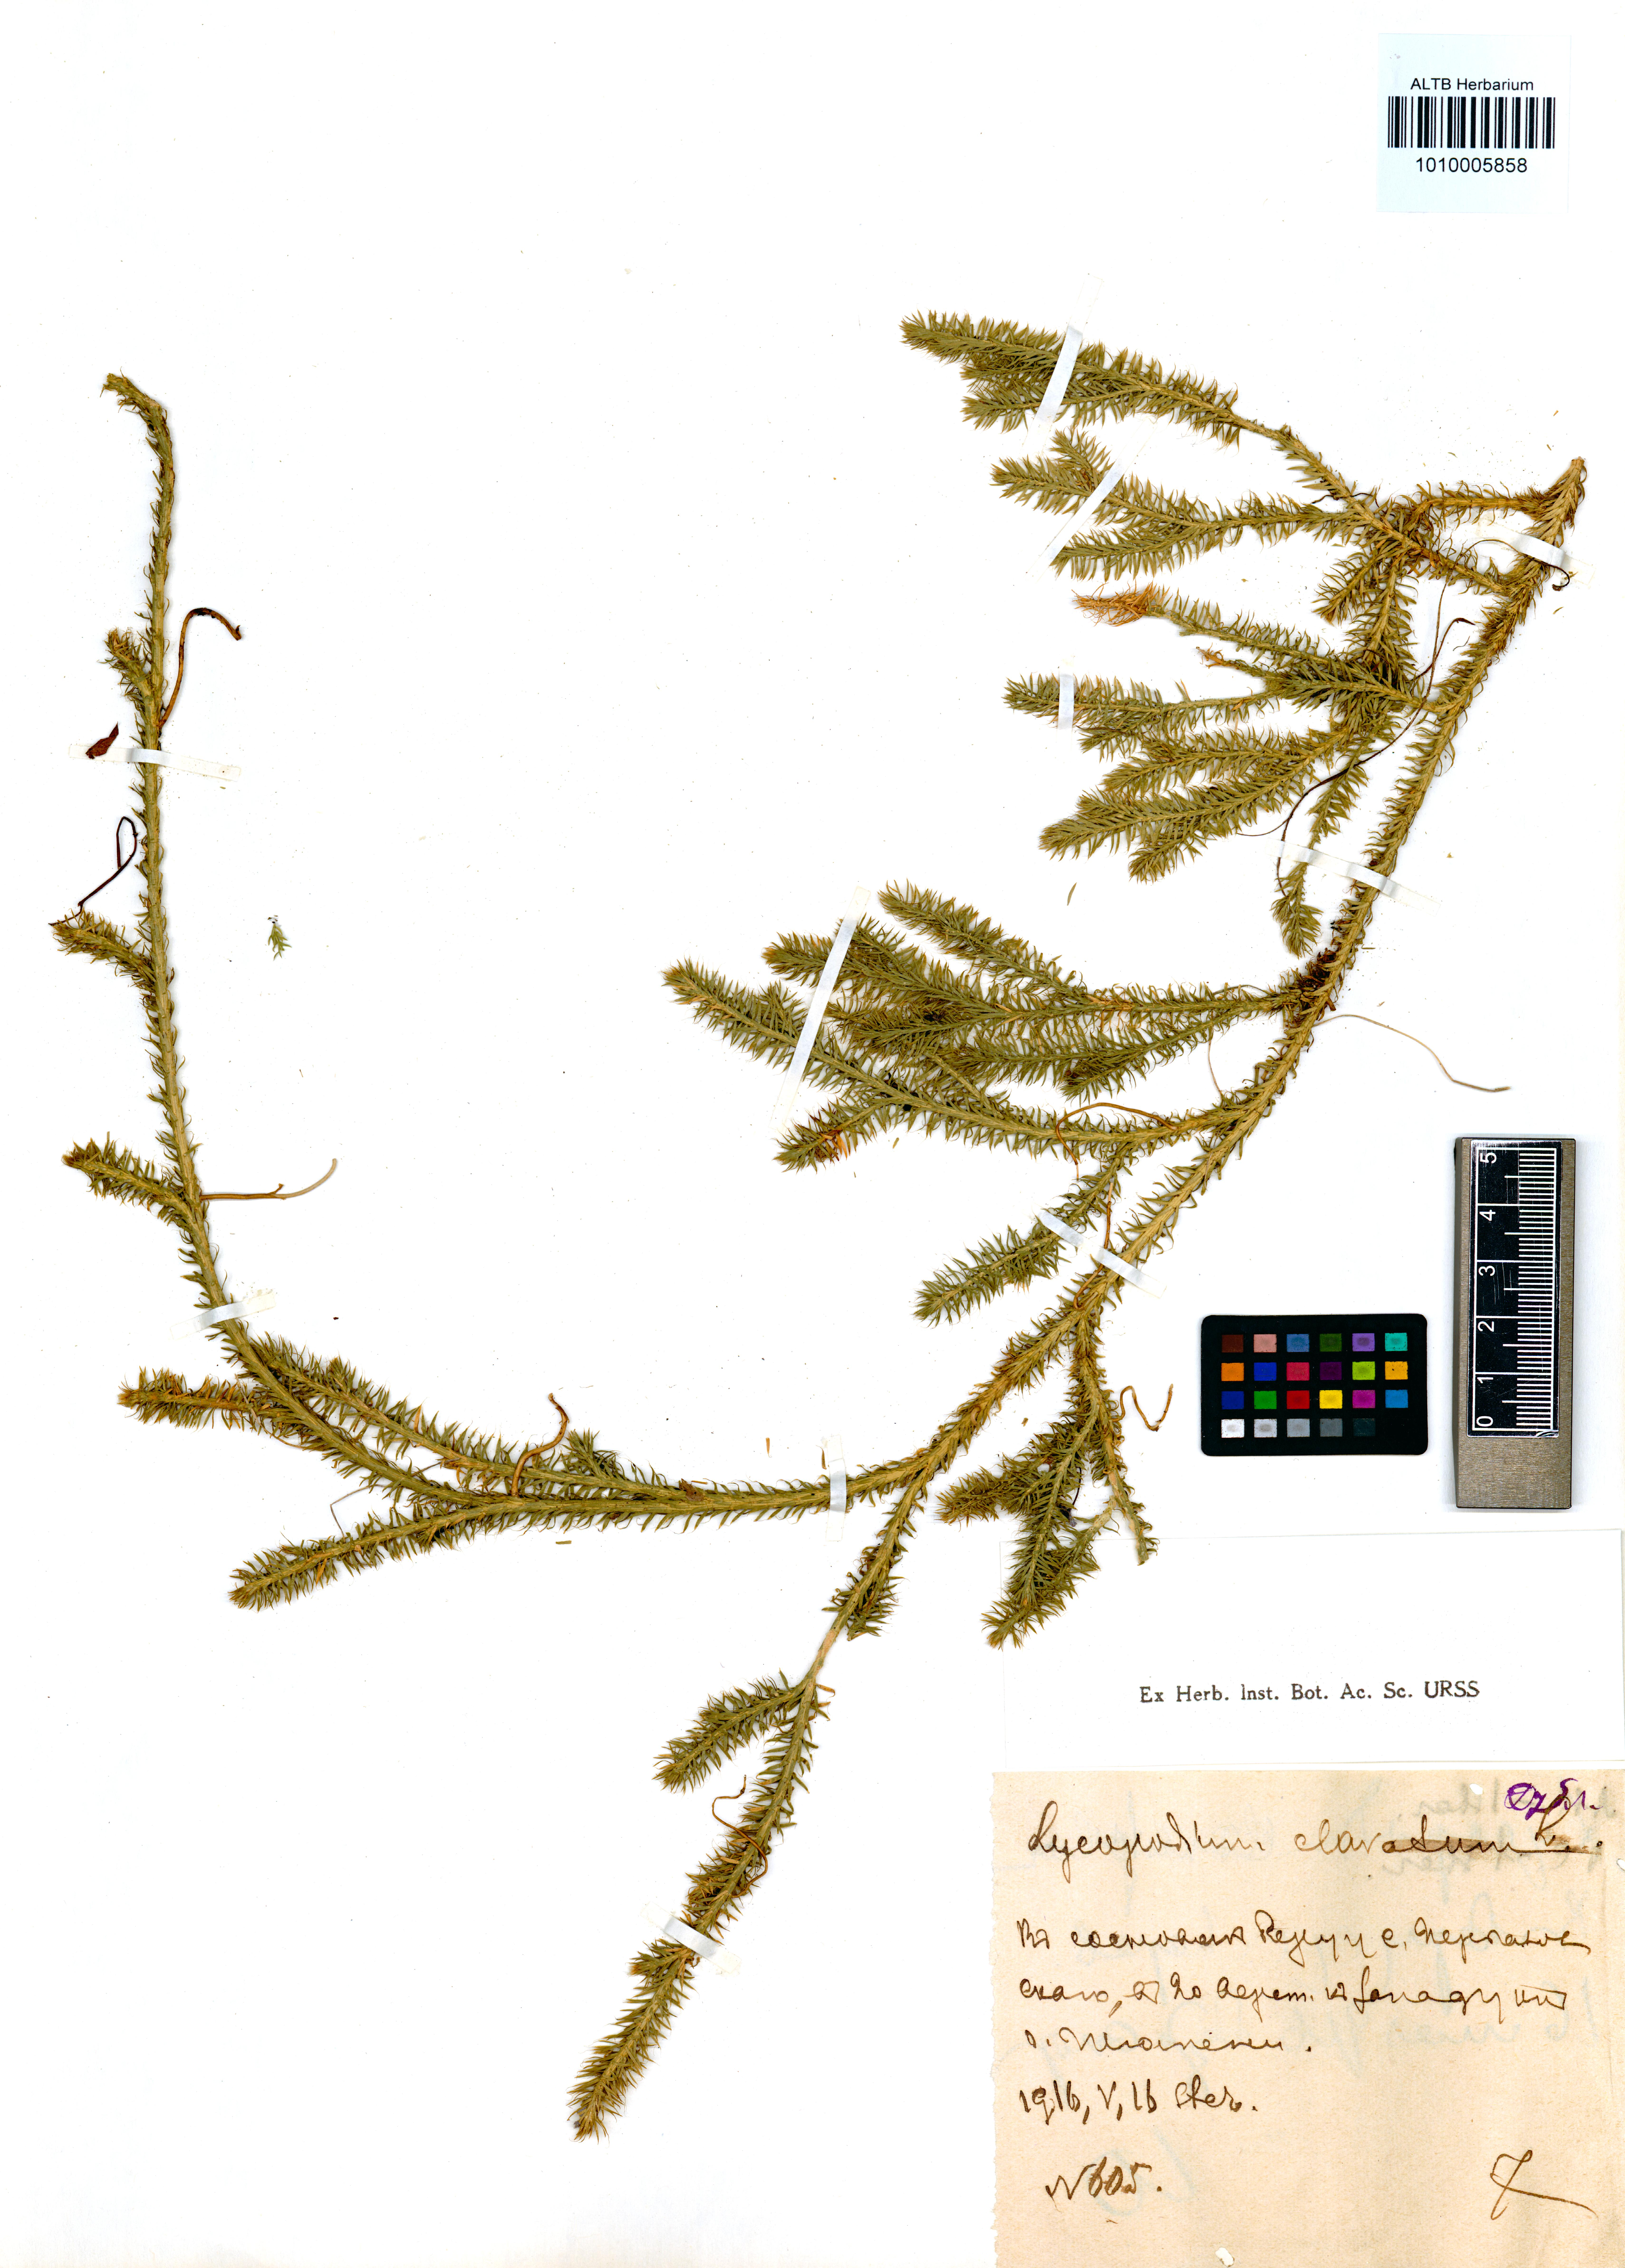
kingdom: Plantae
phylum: Tracheophyta
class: Lycopodiopsida
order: Lycopodiales
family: Lycopodiaceae
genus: Lycopodium
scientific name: Lycopodium clavatum
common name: Stag's-horn clubmoss
